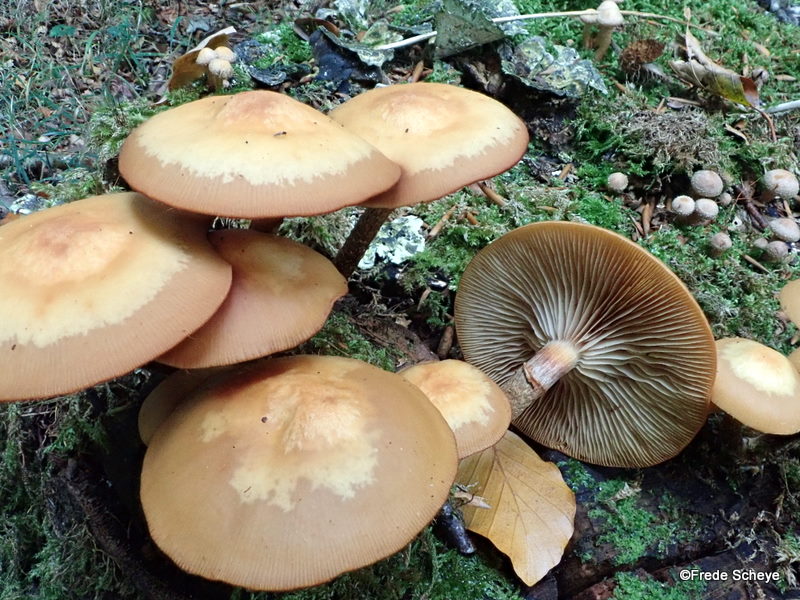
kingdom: Fungi
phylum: Basidiomycota
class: Agaricomycetes
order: Agaricales
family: Strophariaceae
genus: Kuehneromyces
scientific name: Kuehneromyces mutabilis
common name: foranderlig skælhat
